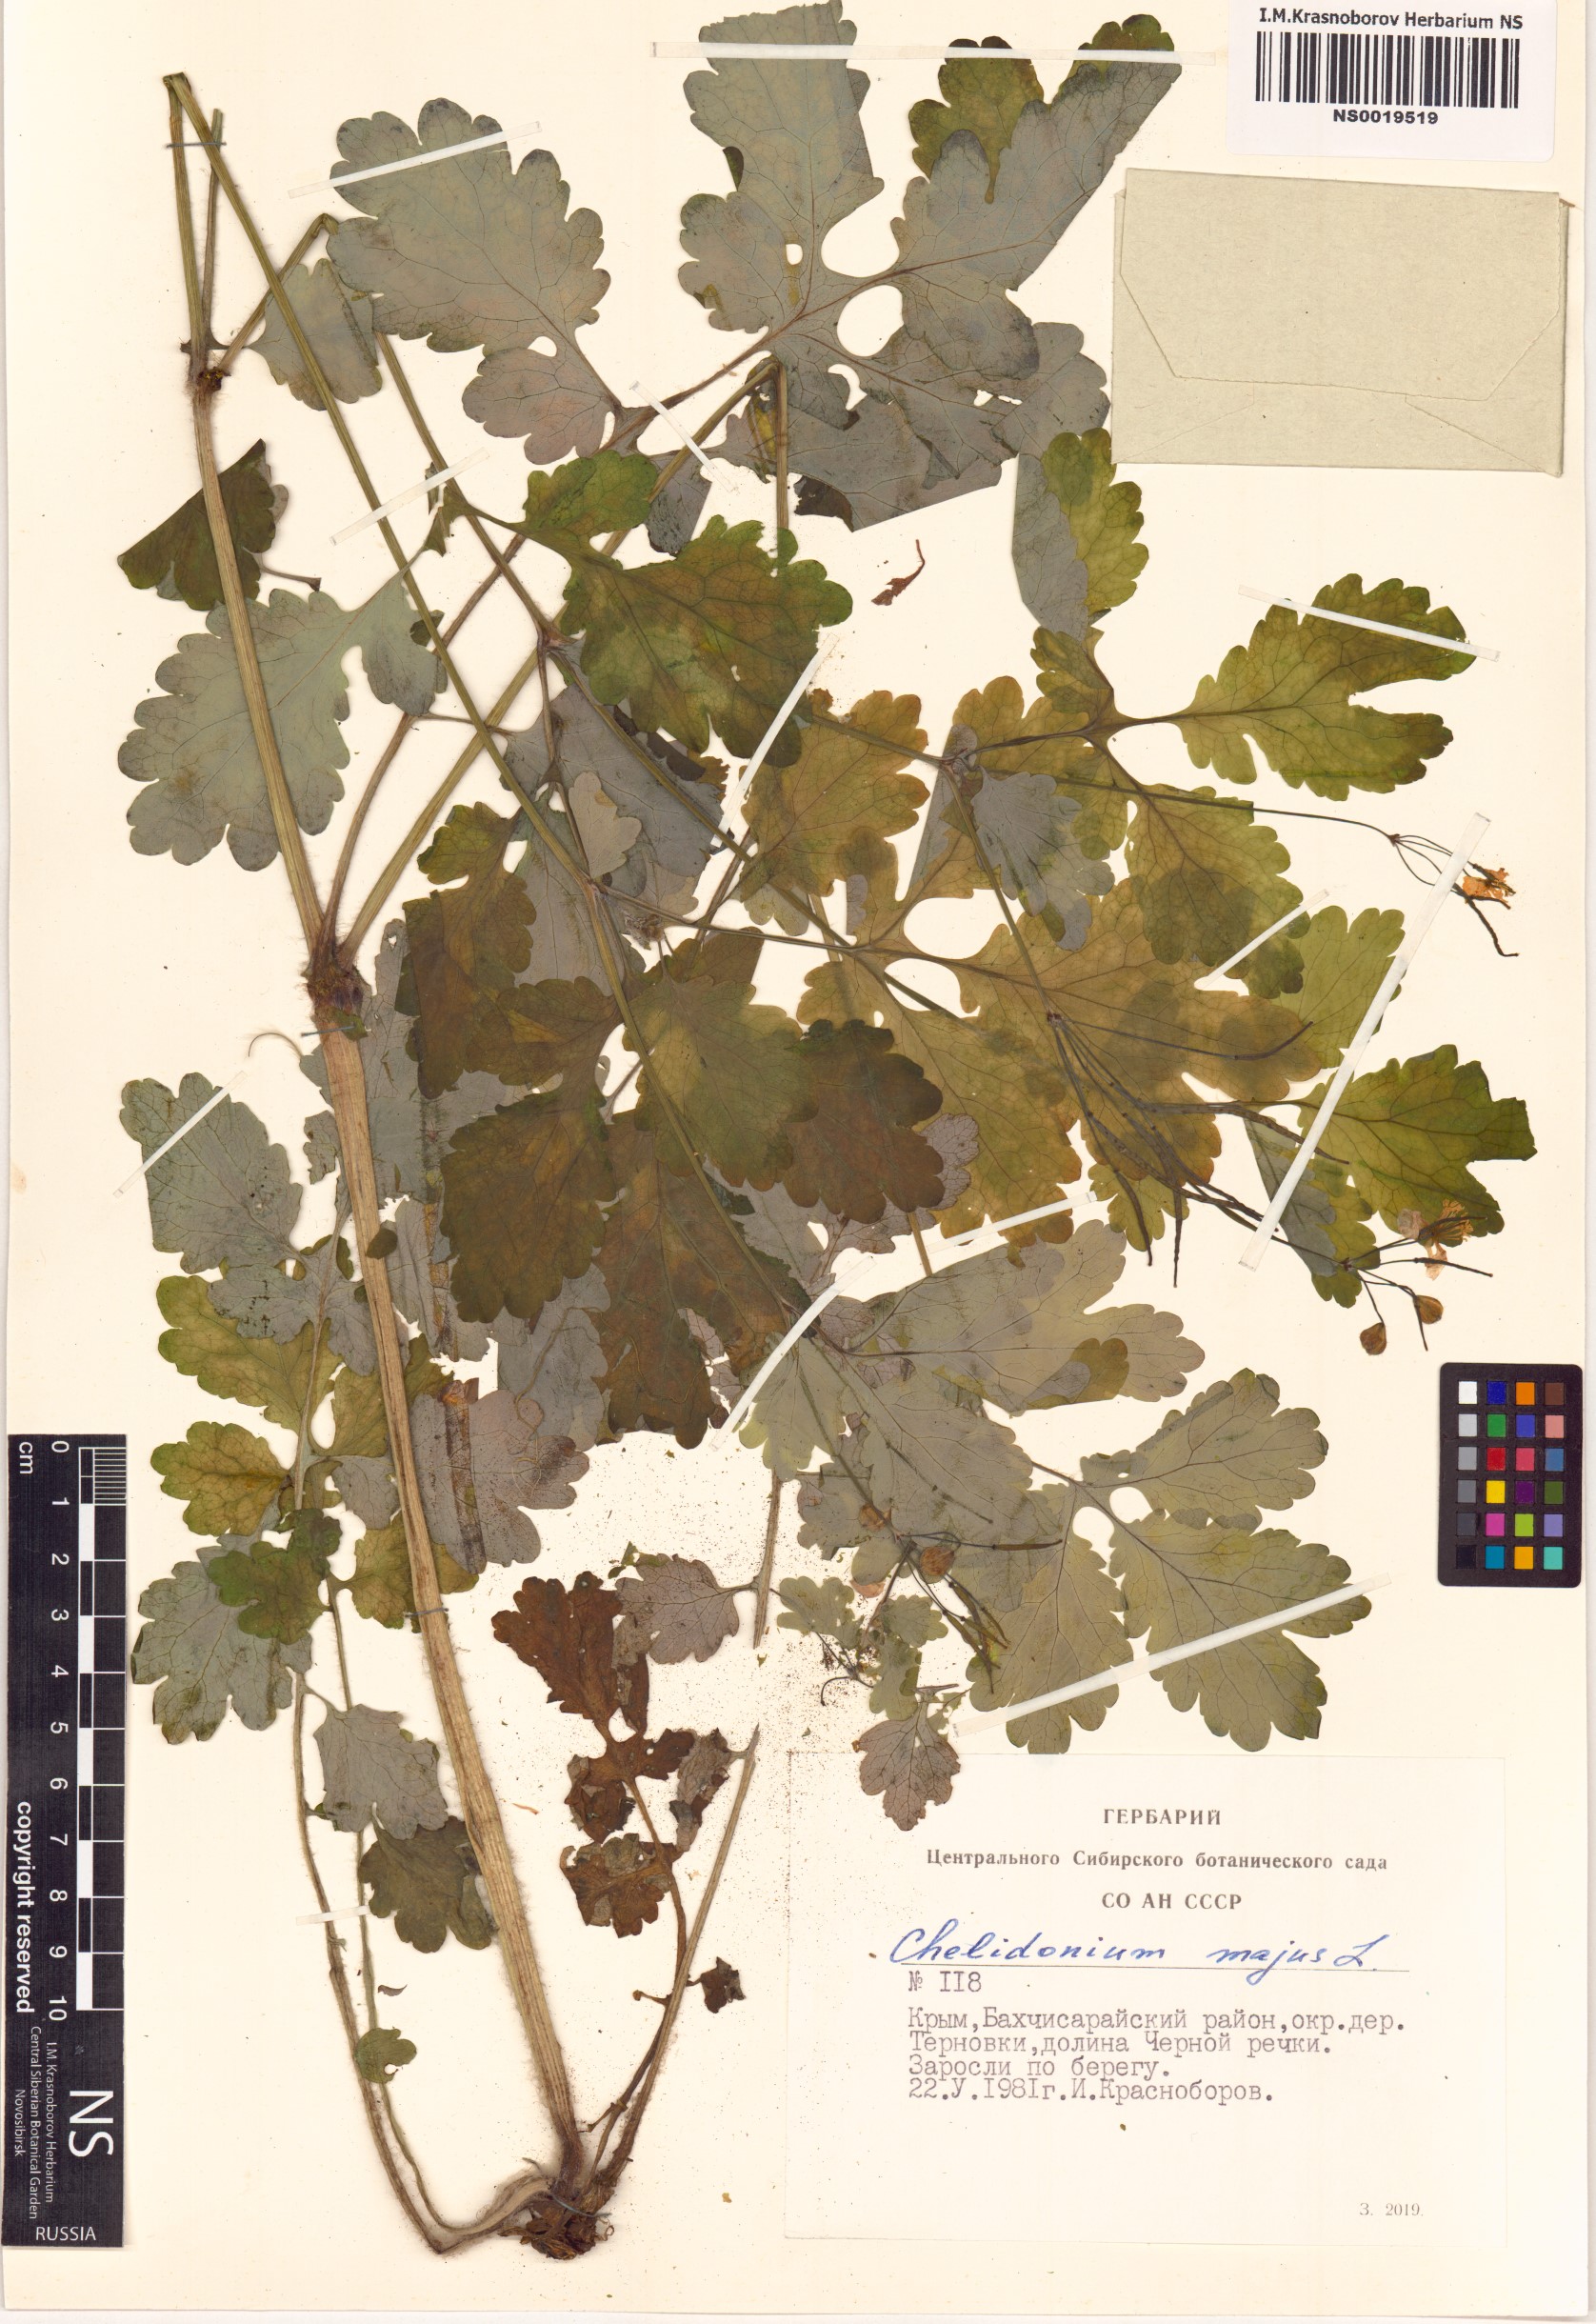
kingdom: Plantae
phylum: Tracheophyta
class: Magnoliopsida
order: Ranunculales
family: Papaveraceae
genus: Chelidonium
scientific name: Chelidonium majus
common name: Greater celandine
